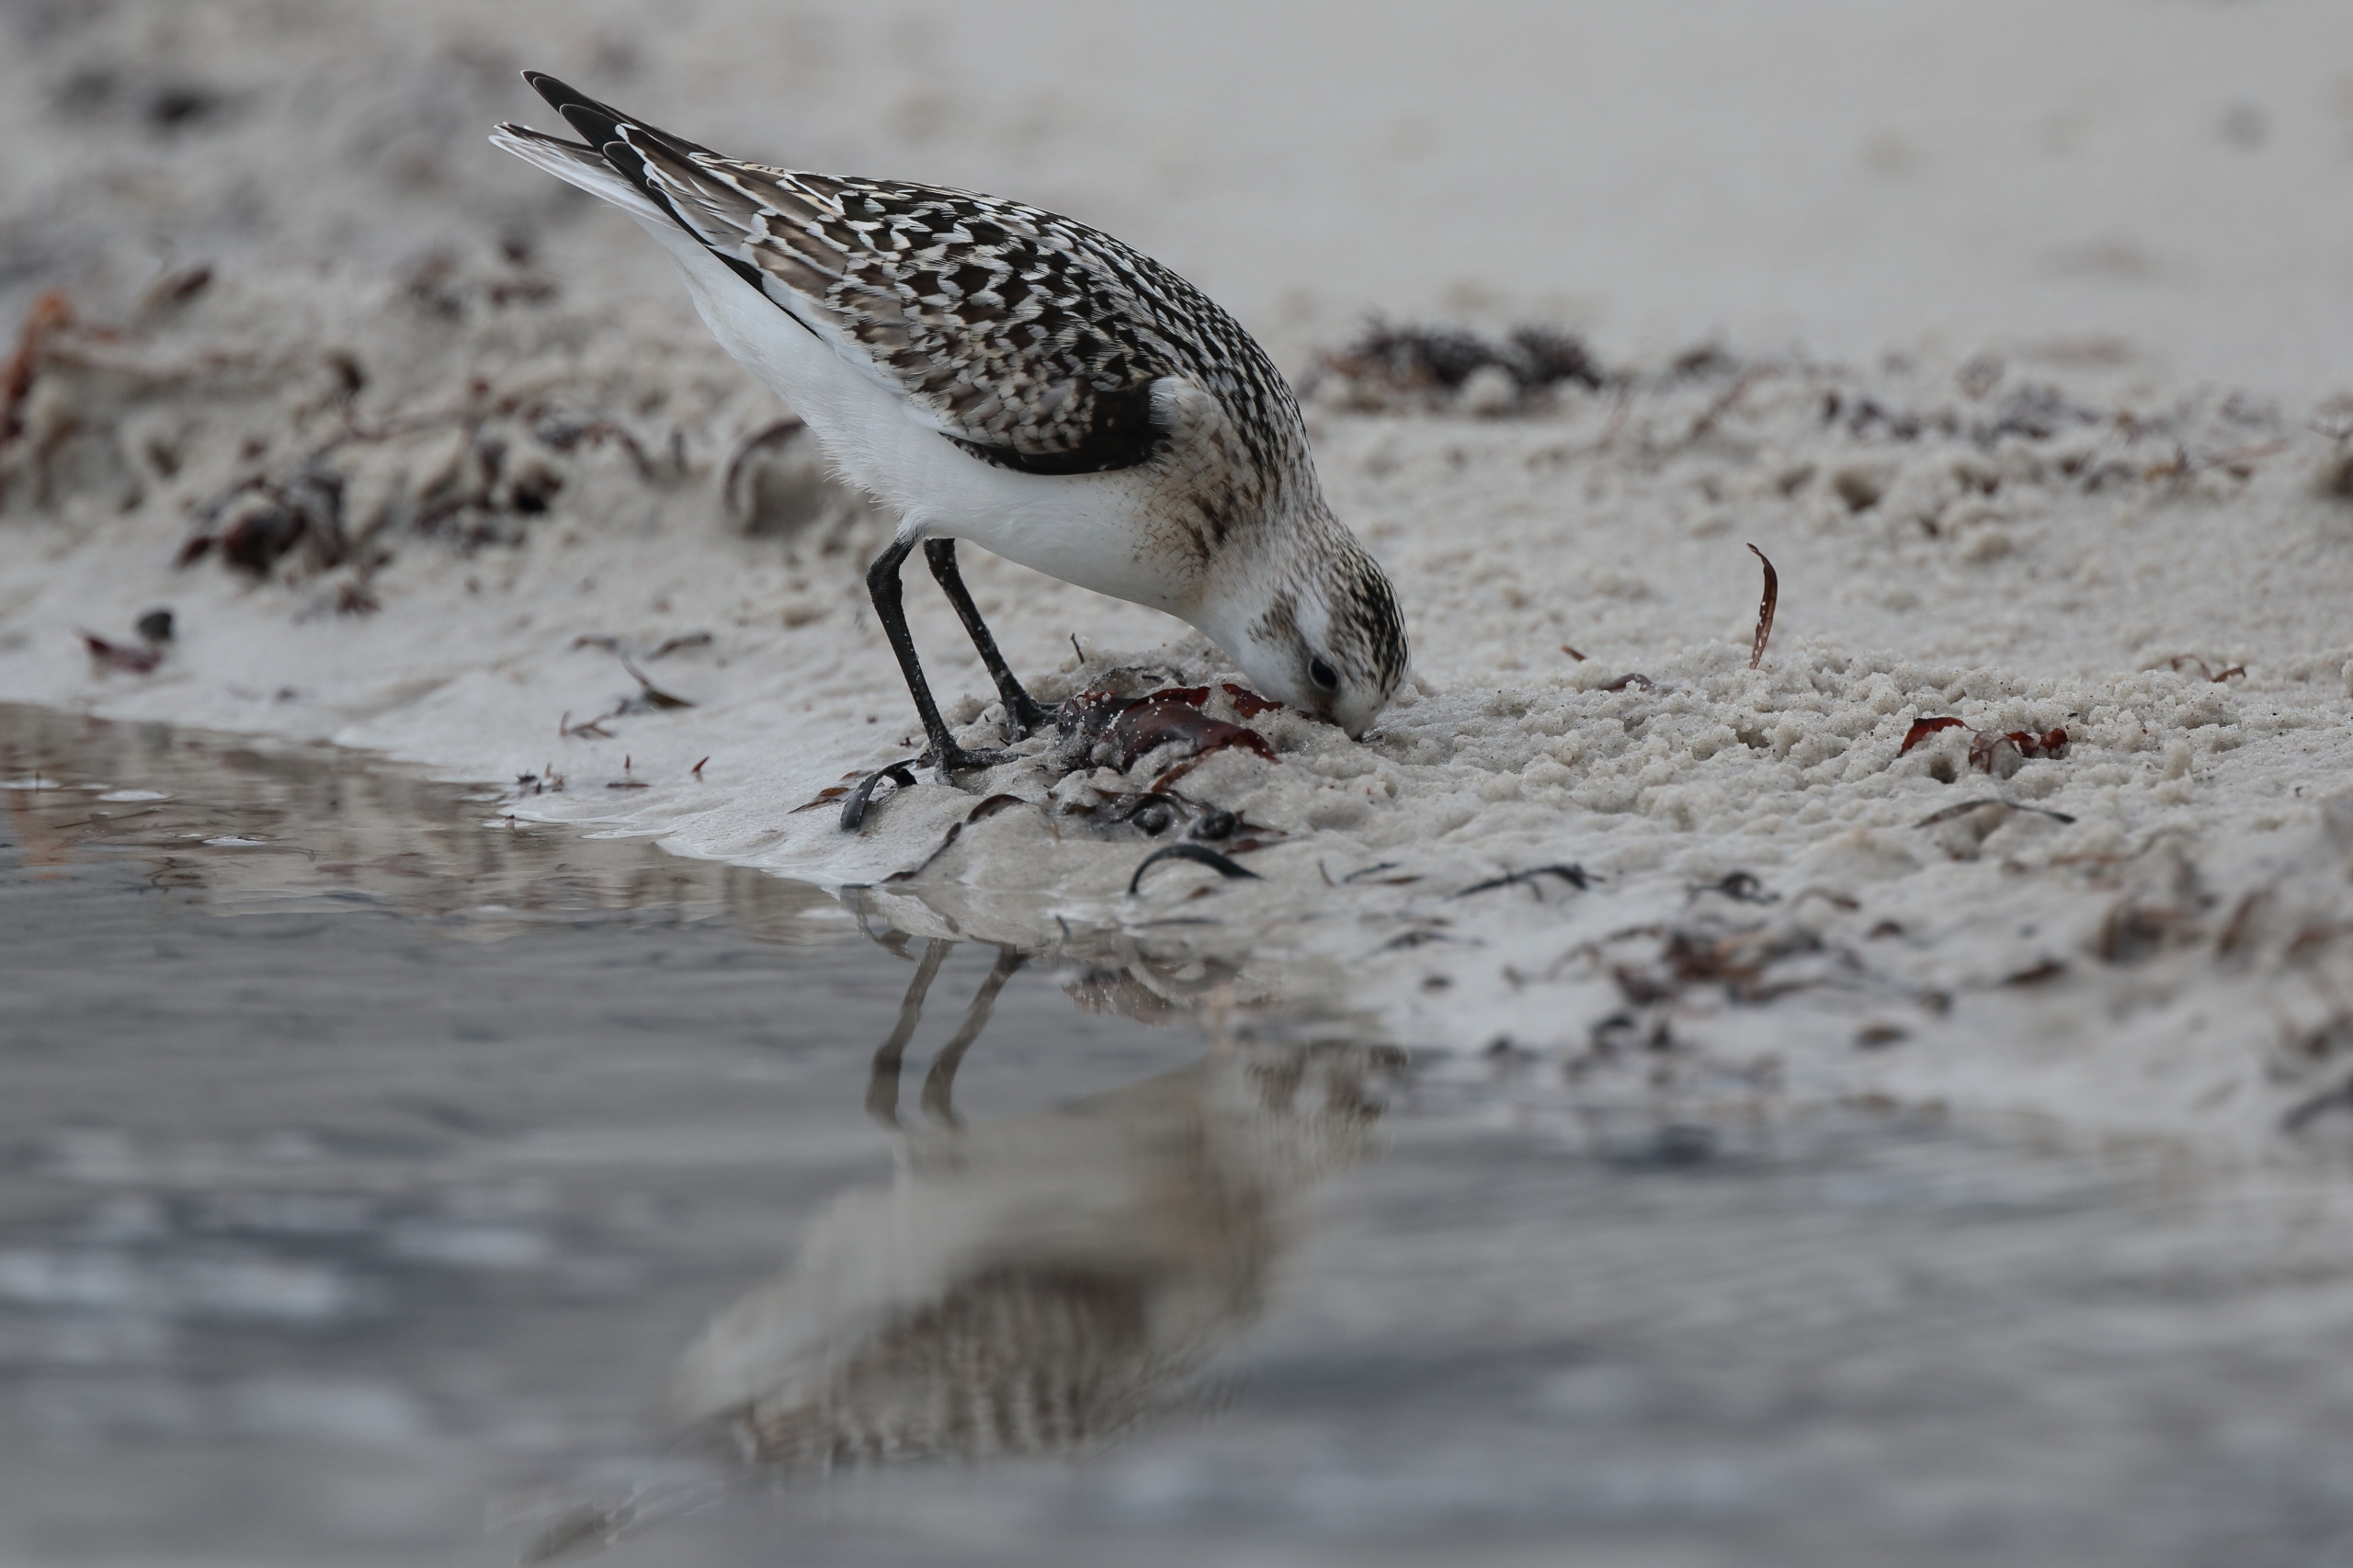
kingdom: Animalia
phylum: Chordata
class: Aves
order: Charadriiformes
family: Scolopacidae
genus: Calidris
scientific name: Calidris alba
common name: Sandløber
